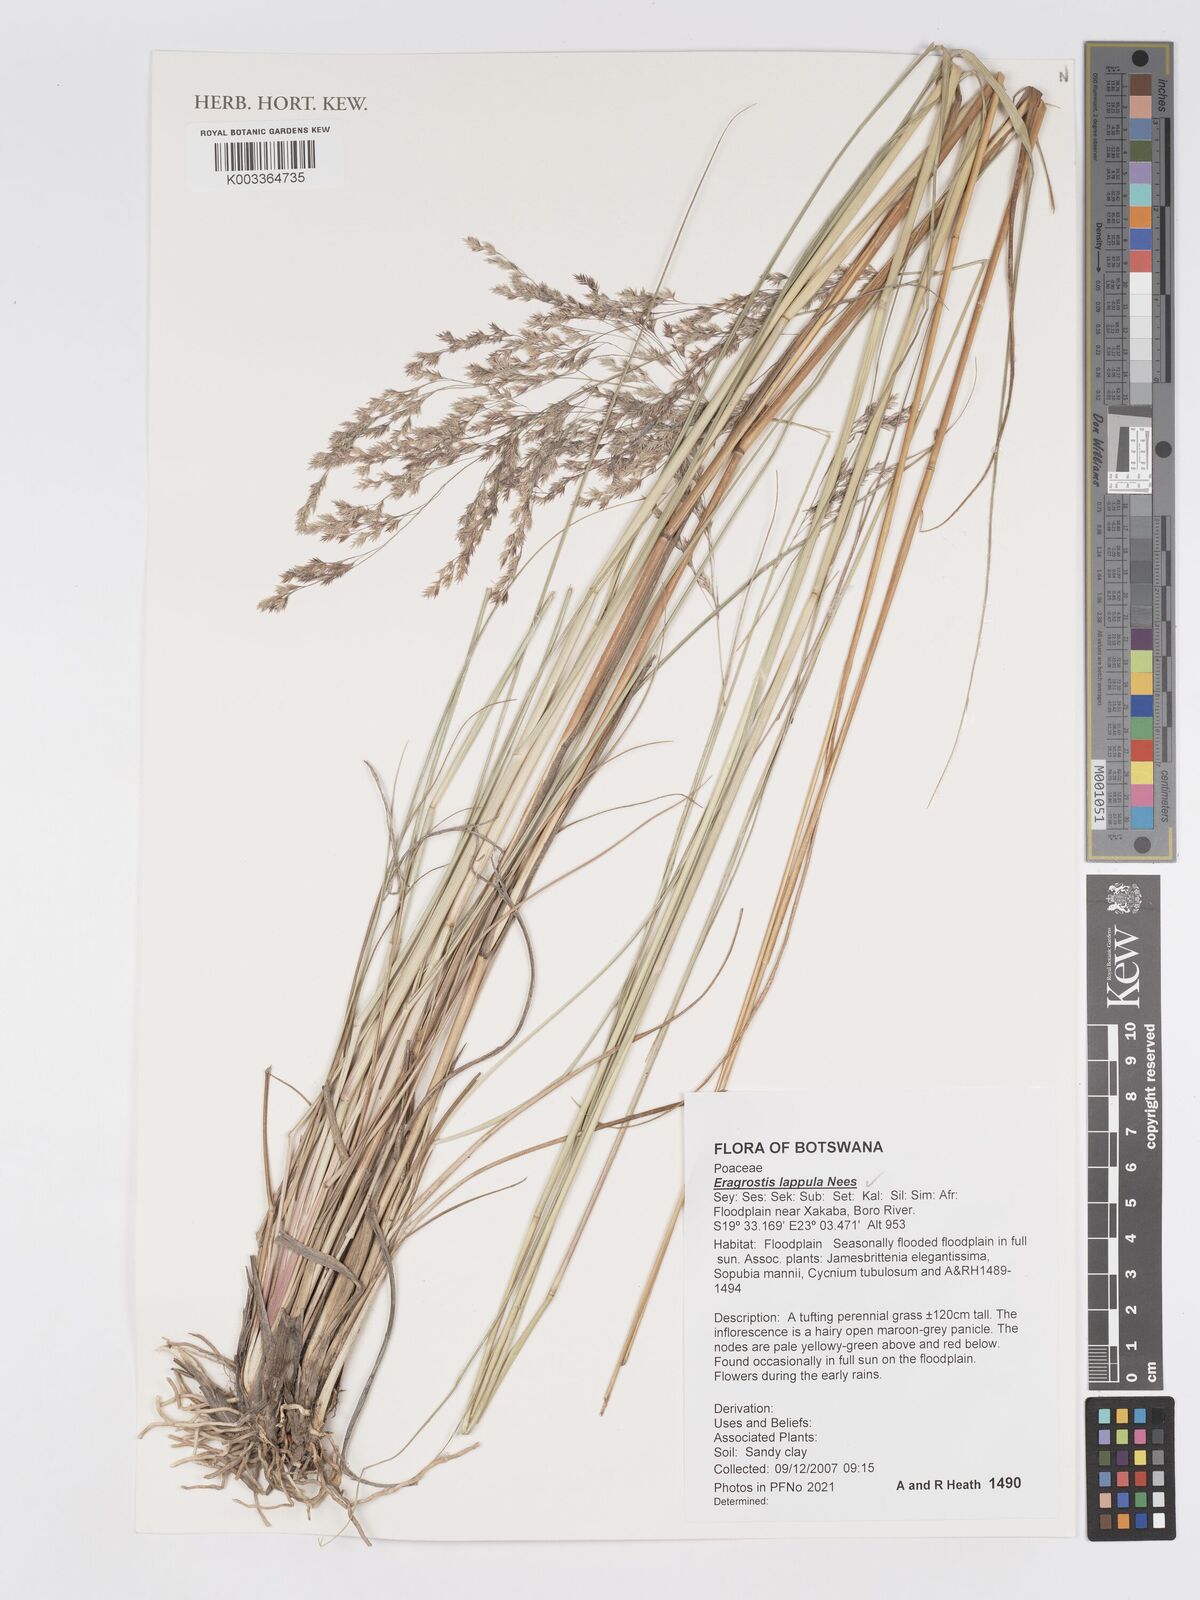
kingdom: Plantae
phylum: Tracheophyta
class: Liliopsida
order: Poales
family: Poaceae
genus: Eragrostis
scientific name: Eragrostis lappula
